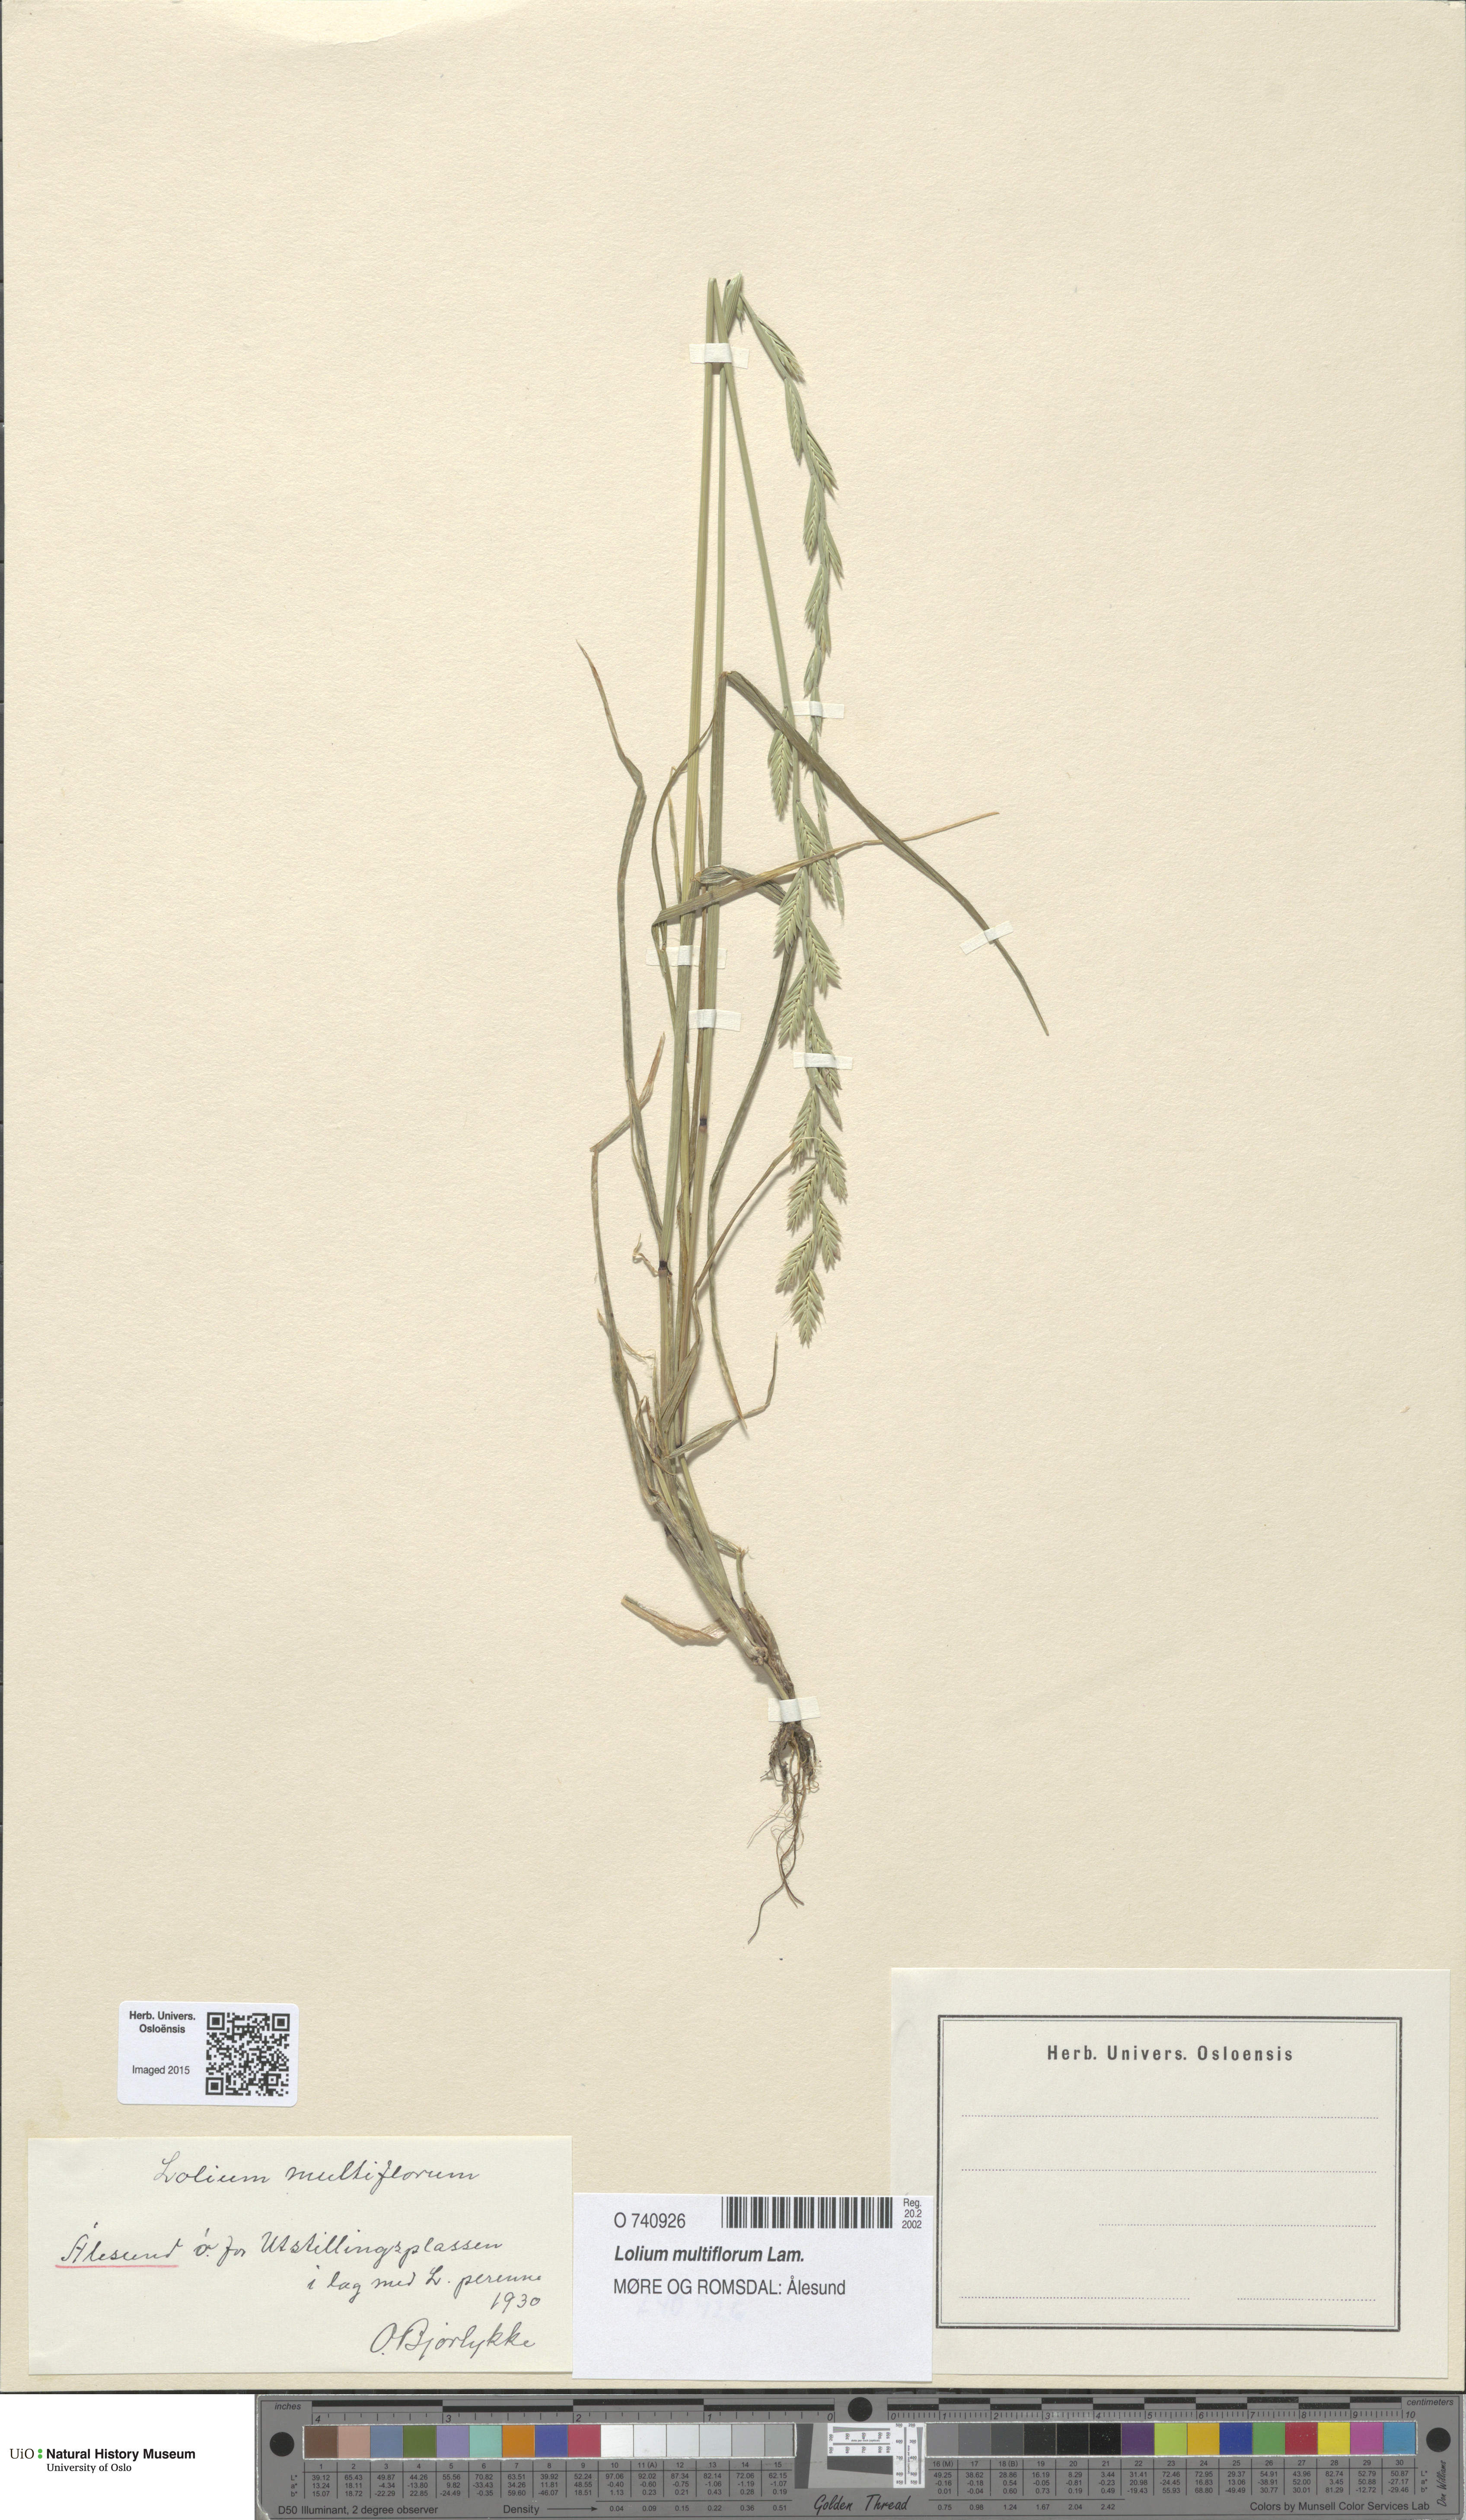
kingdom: Plantae
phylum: Tracheophyta
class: Liliopsida
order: Poales
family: Poaceae
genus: Lolium
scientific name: Lolium multiflorum
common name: Annual ryegrass
